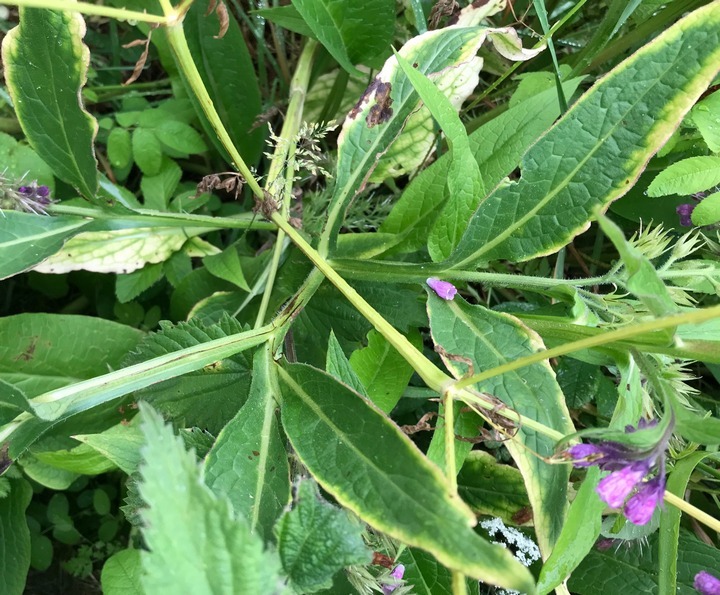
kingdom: Plantae
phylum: Tracheophyta
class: Magnoliopsida
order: Boraginales
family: Boraginaceae
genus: Symphytum
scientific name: Symphytum officinale
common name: Læge-kulsukker
